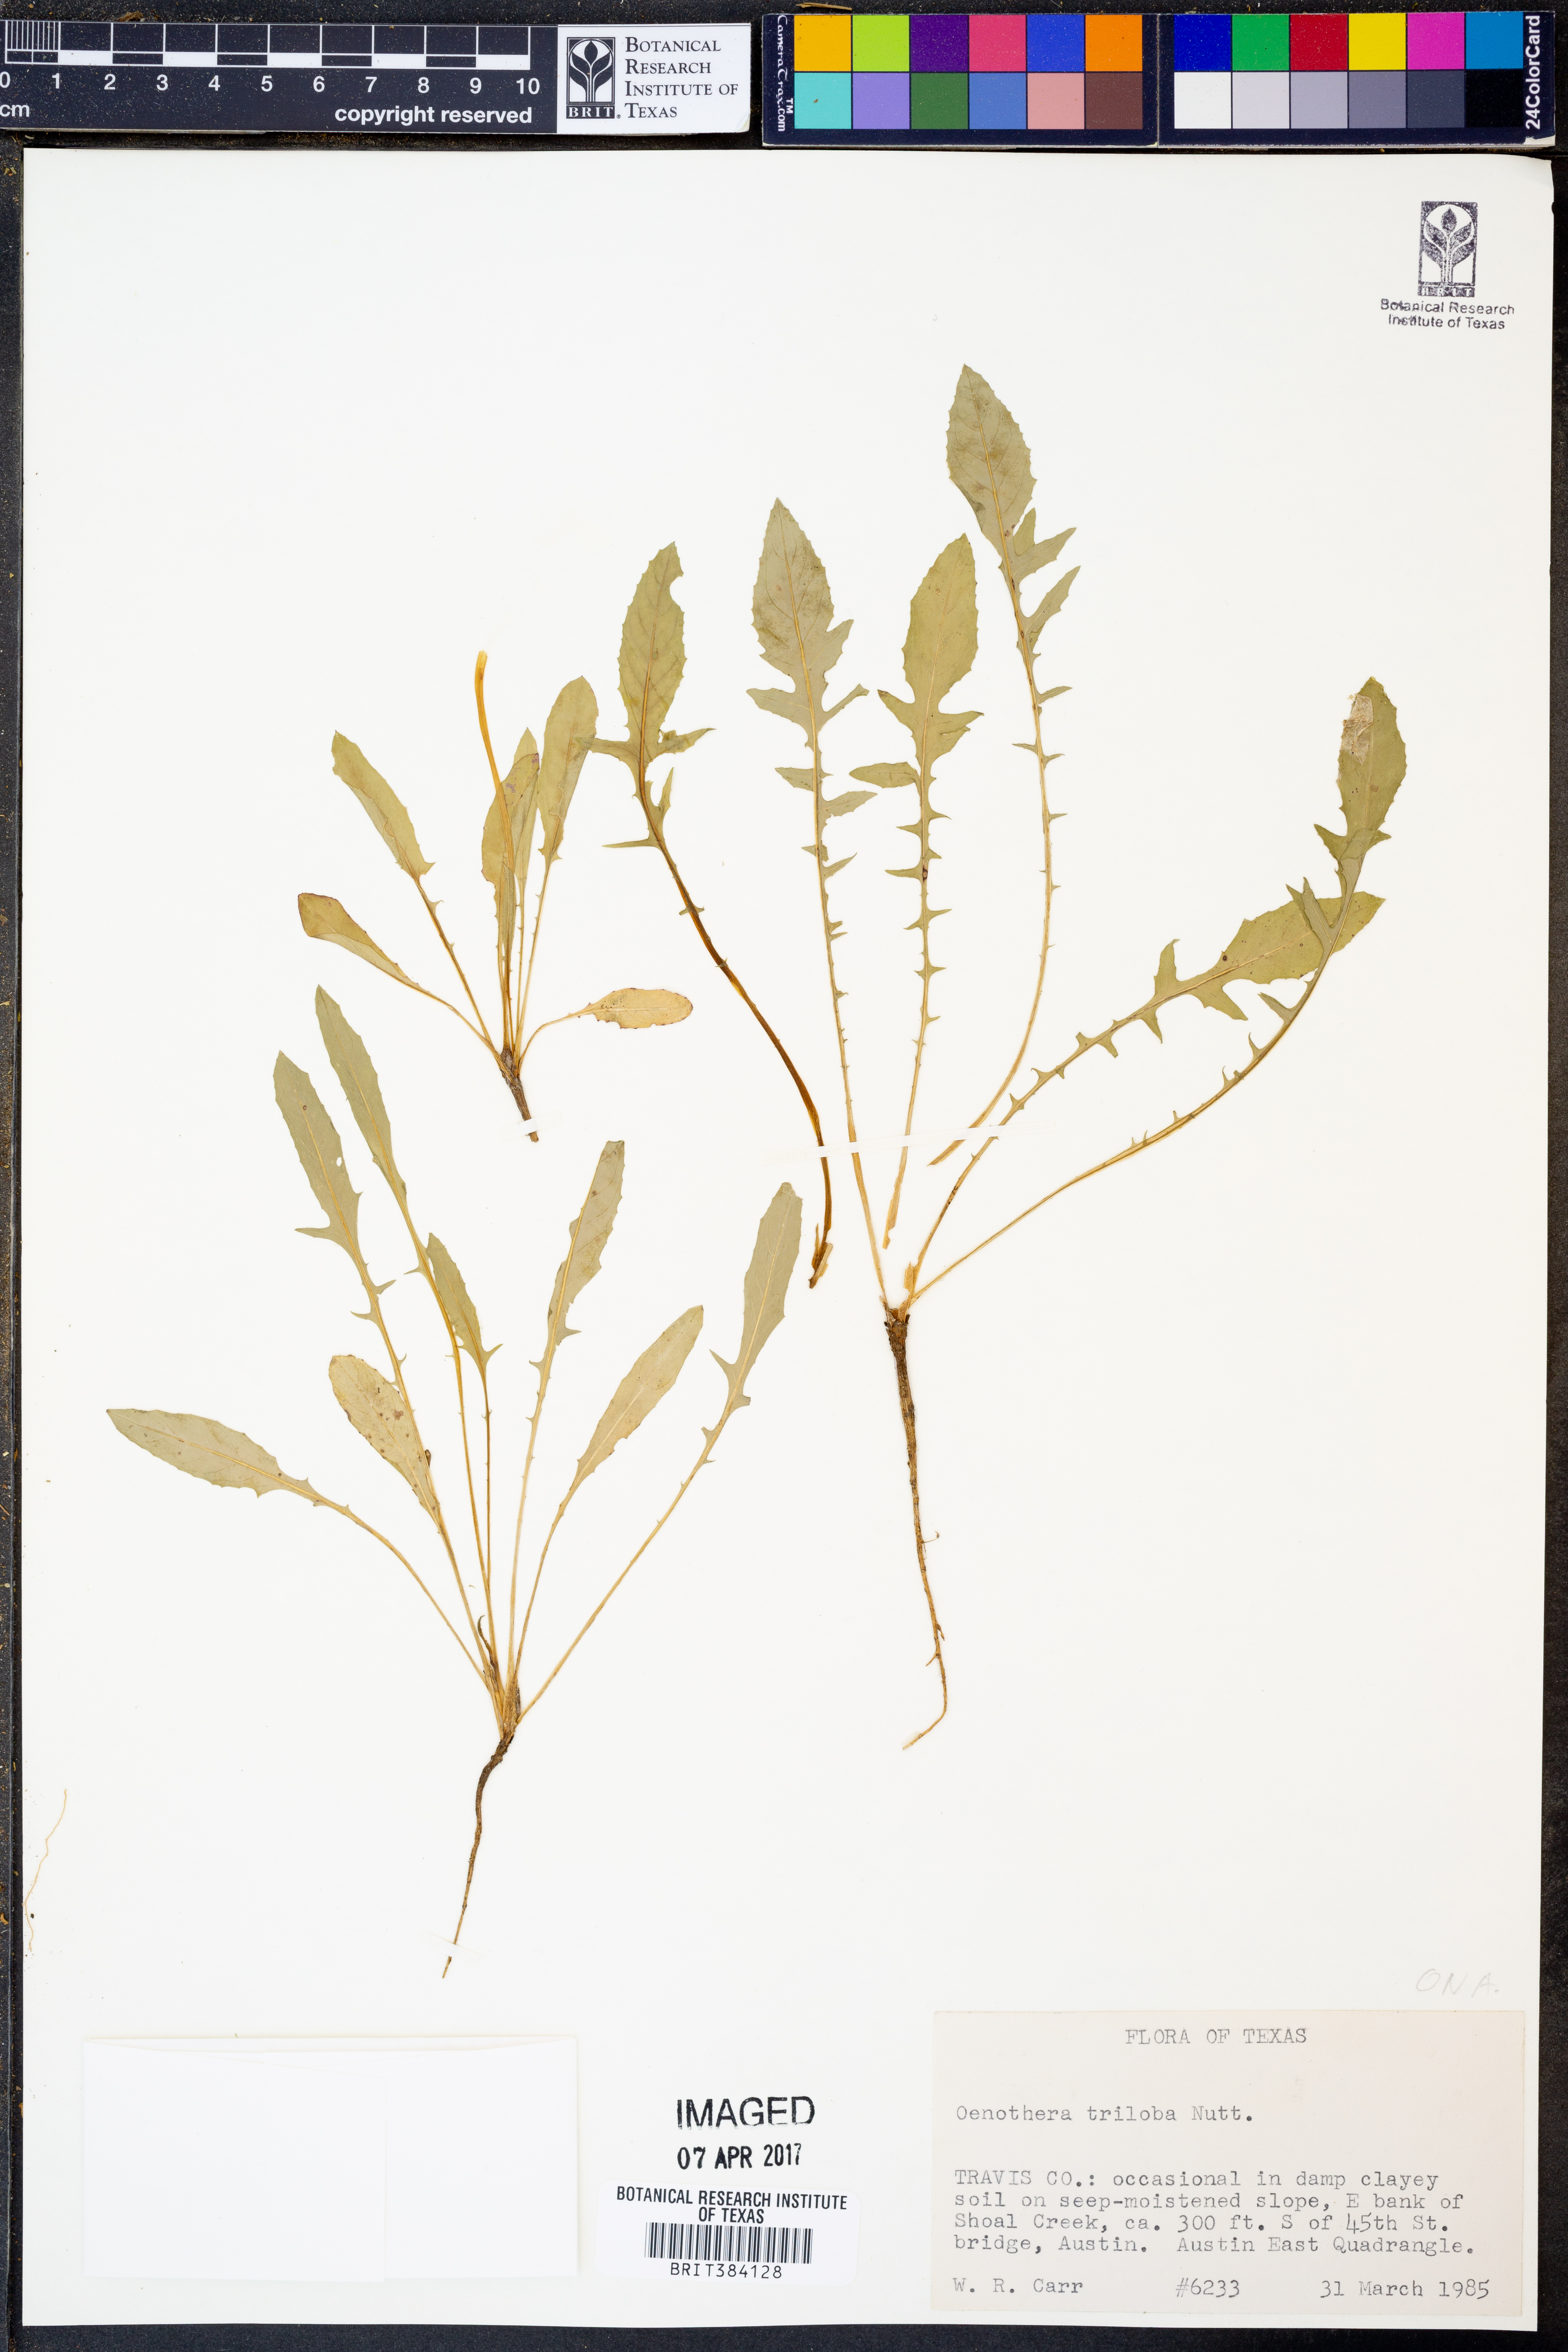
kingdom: Plantae
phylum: Tracheophyta
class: Magnoliopsida
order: Myrtales
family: Onagraceae
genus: Oenothera
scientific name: Oenothera triloba
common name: Sessile evening-primrose
